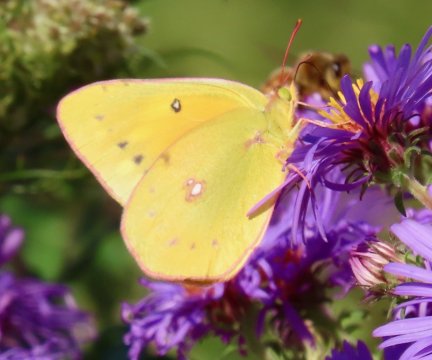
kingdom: Animalia
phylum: Arthropoda
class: Insecta
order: Lepidoptera
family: Pieridae
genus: Colias
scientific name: Colias eurytheme
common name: Orange Sulphur
